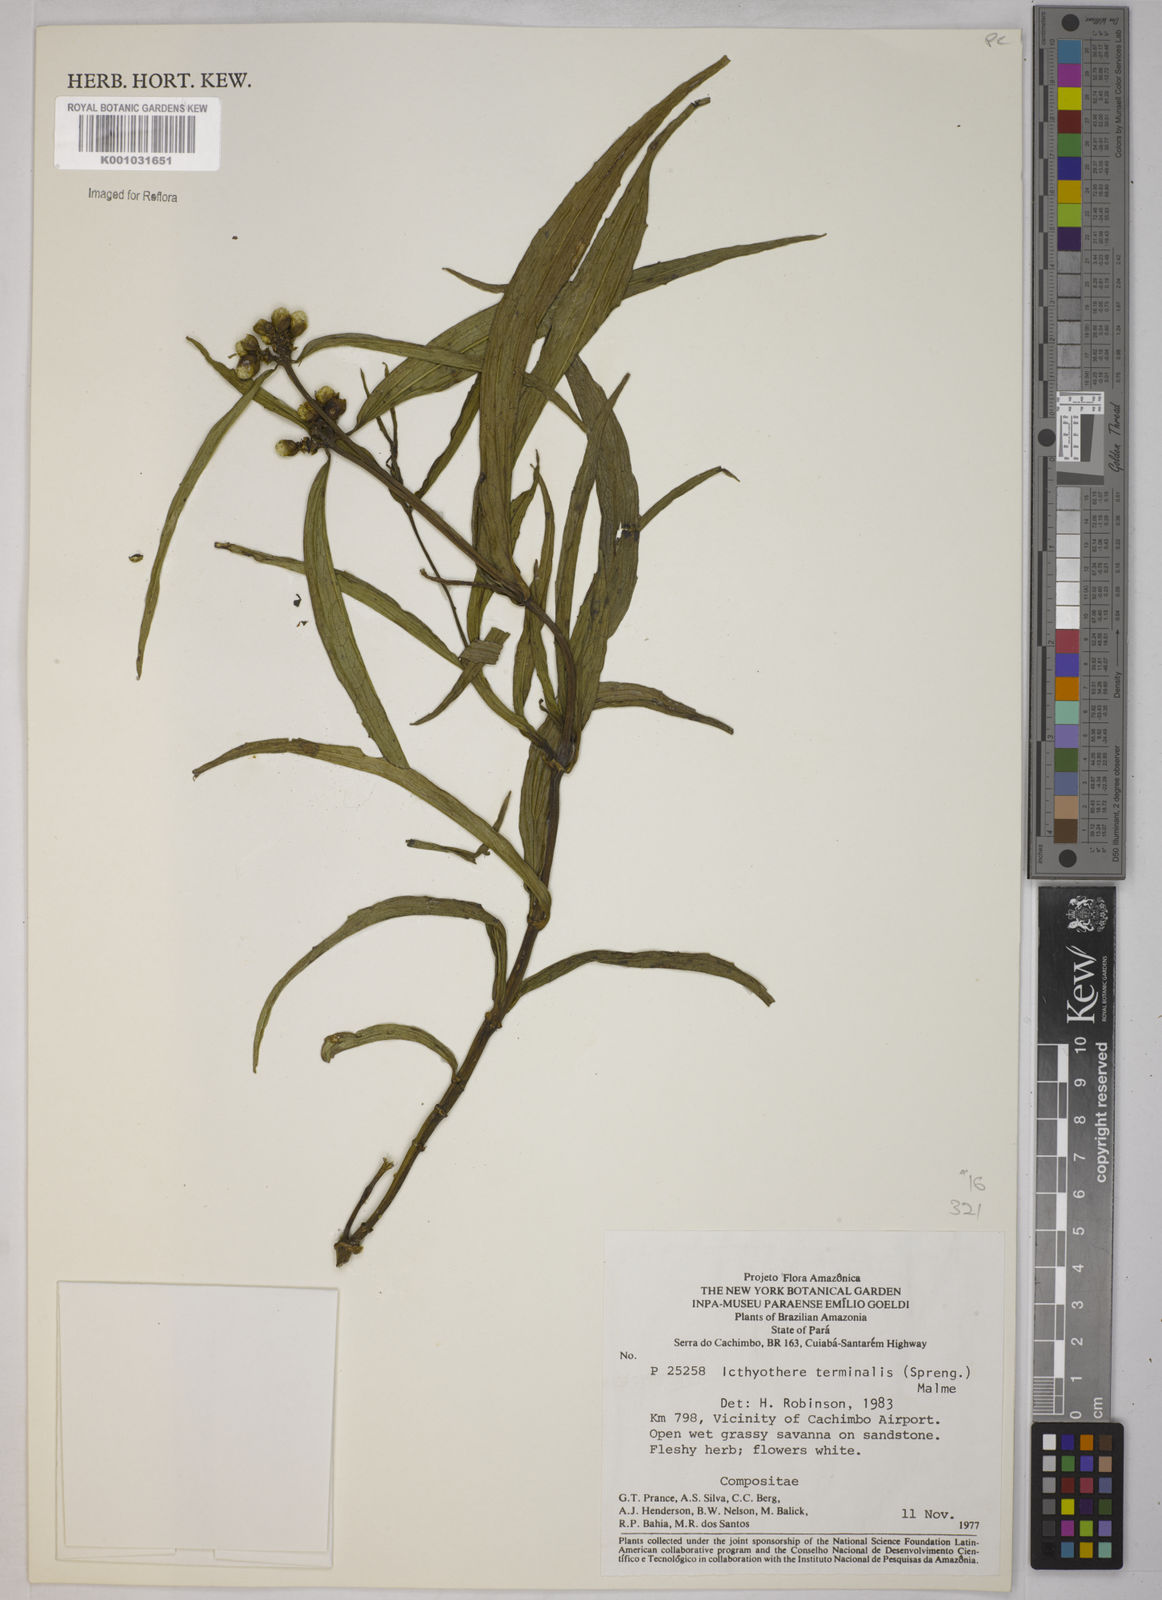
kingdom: Plantae
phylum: Tracheophyta
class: Magnoliopsida
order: Asterales
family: Asteraceae
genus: Ichthyothere
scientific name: Ichthyothere terminalis
